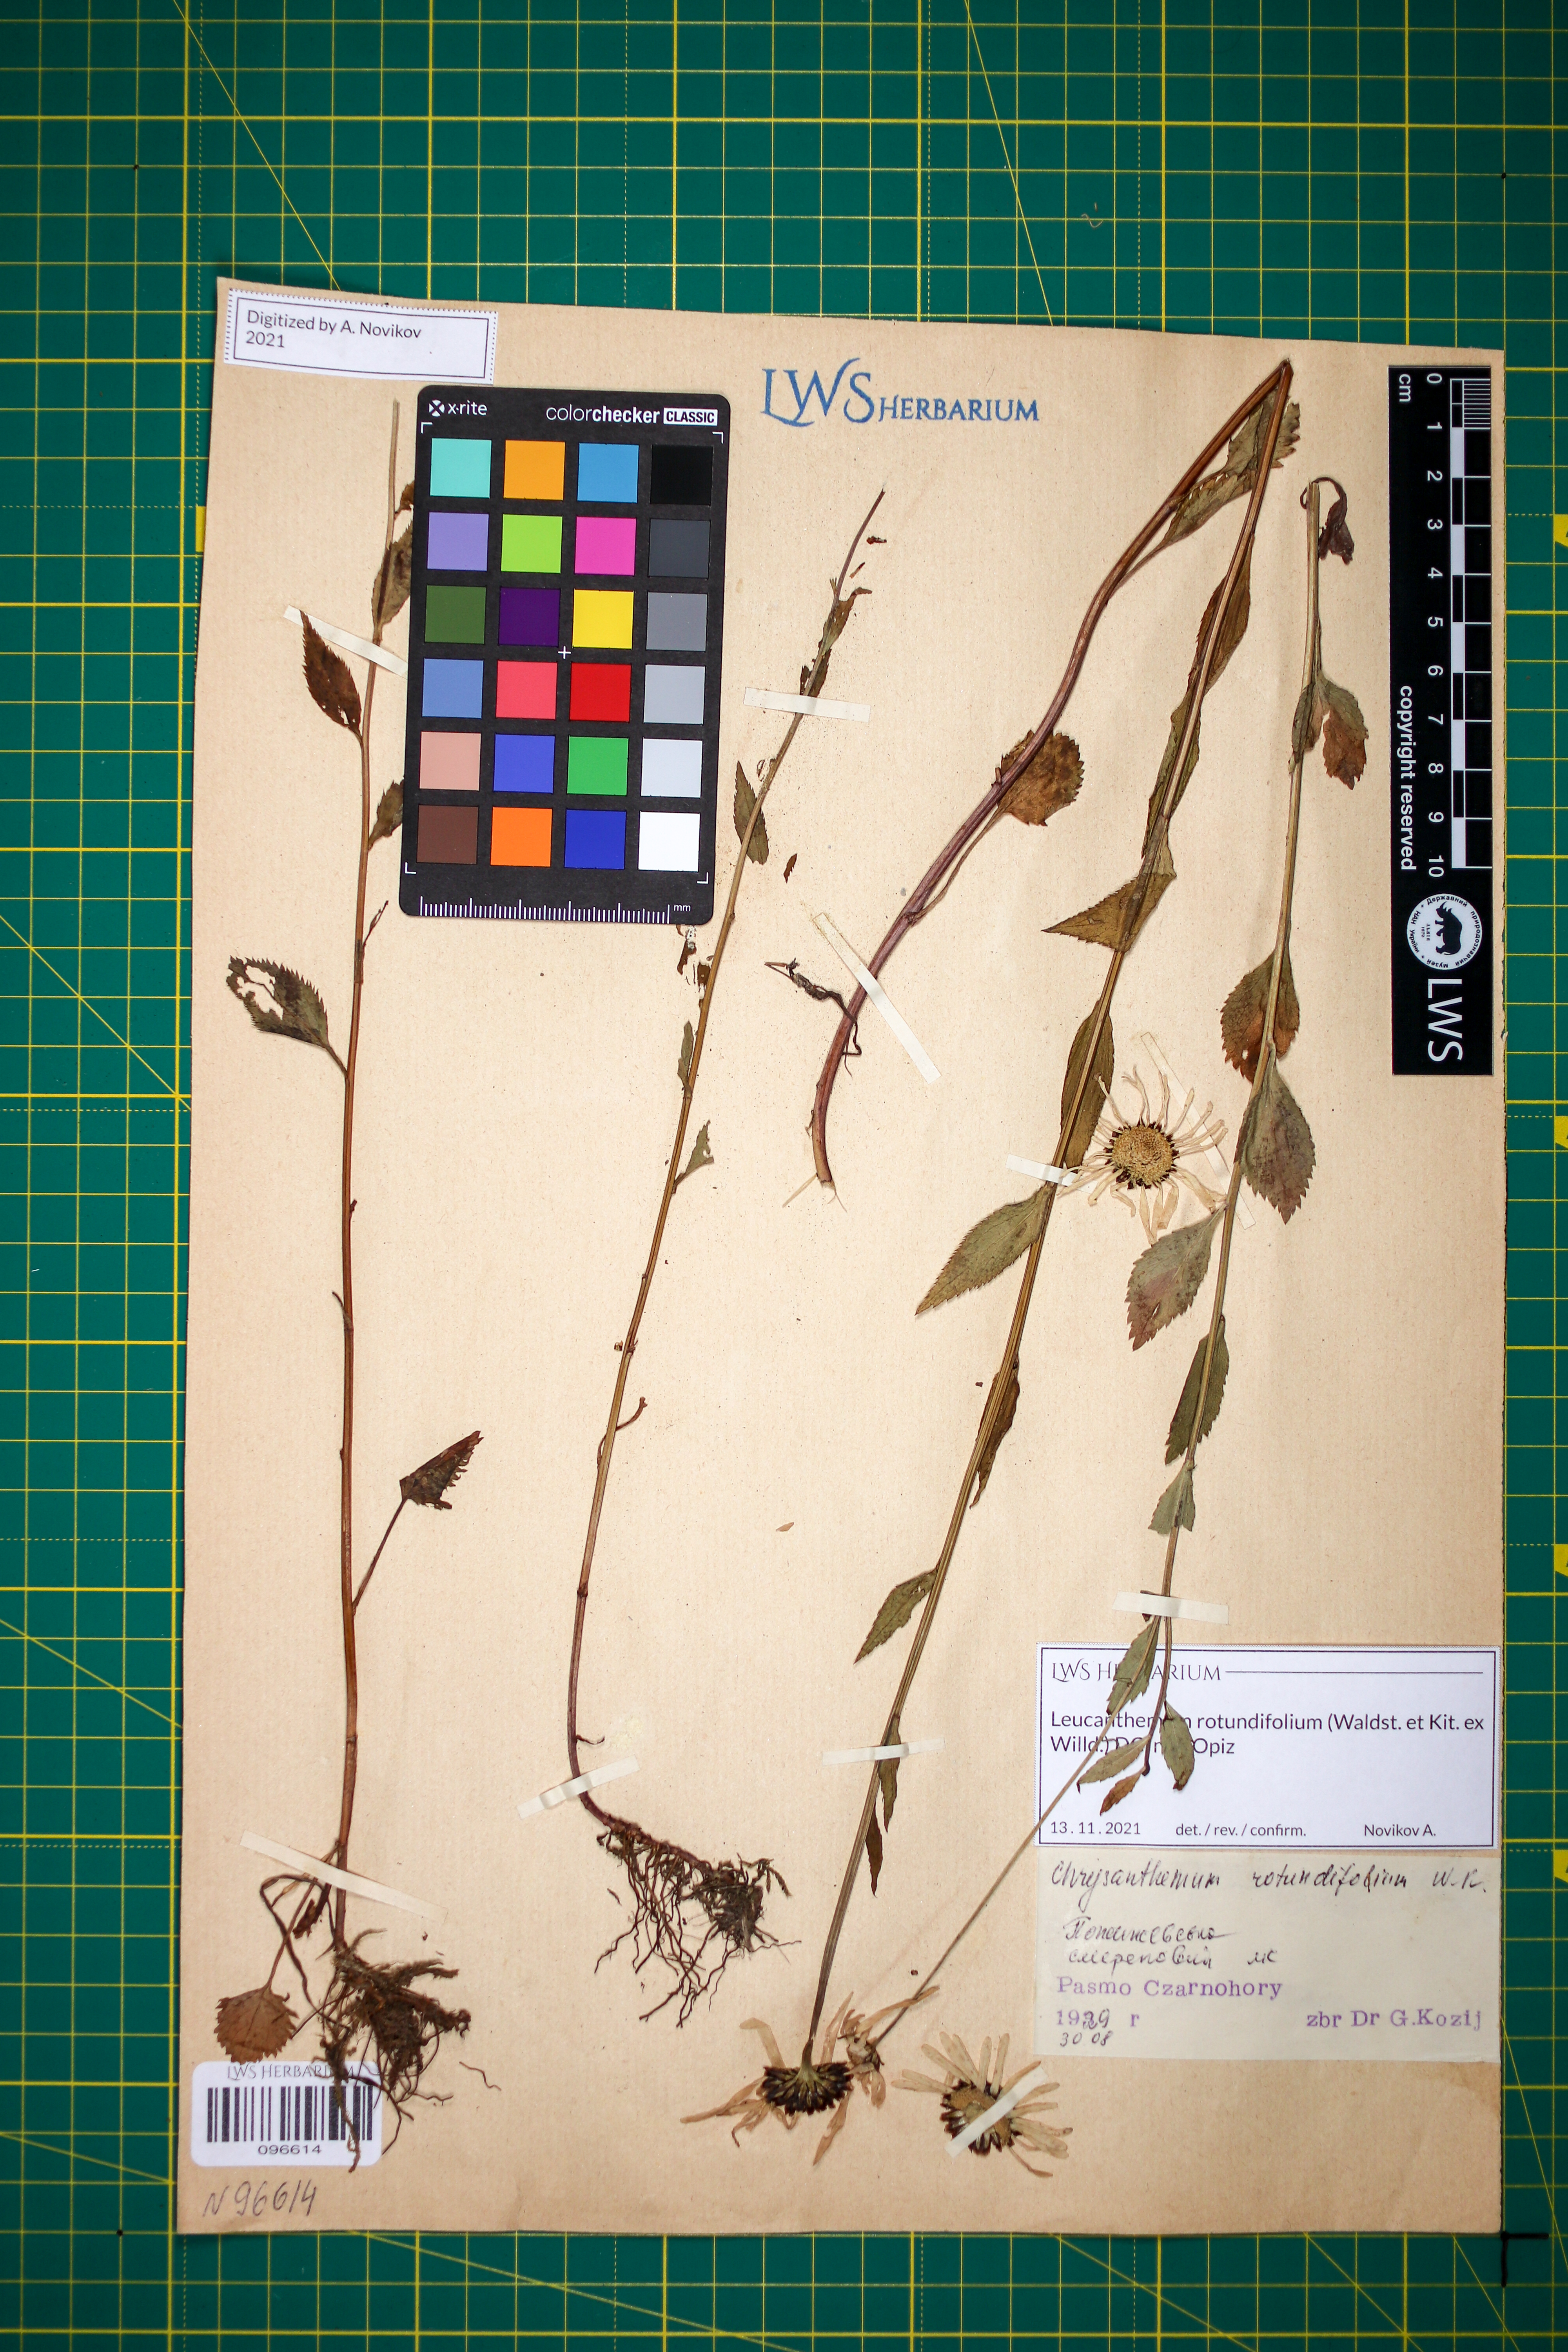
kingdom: Plantae
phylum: Tracheophyta
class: Magnoliopsida
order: Asterales
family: Asteraceae
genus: Leucanthemum
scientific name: Leucanthemum rotundifolium
